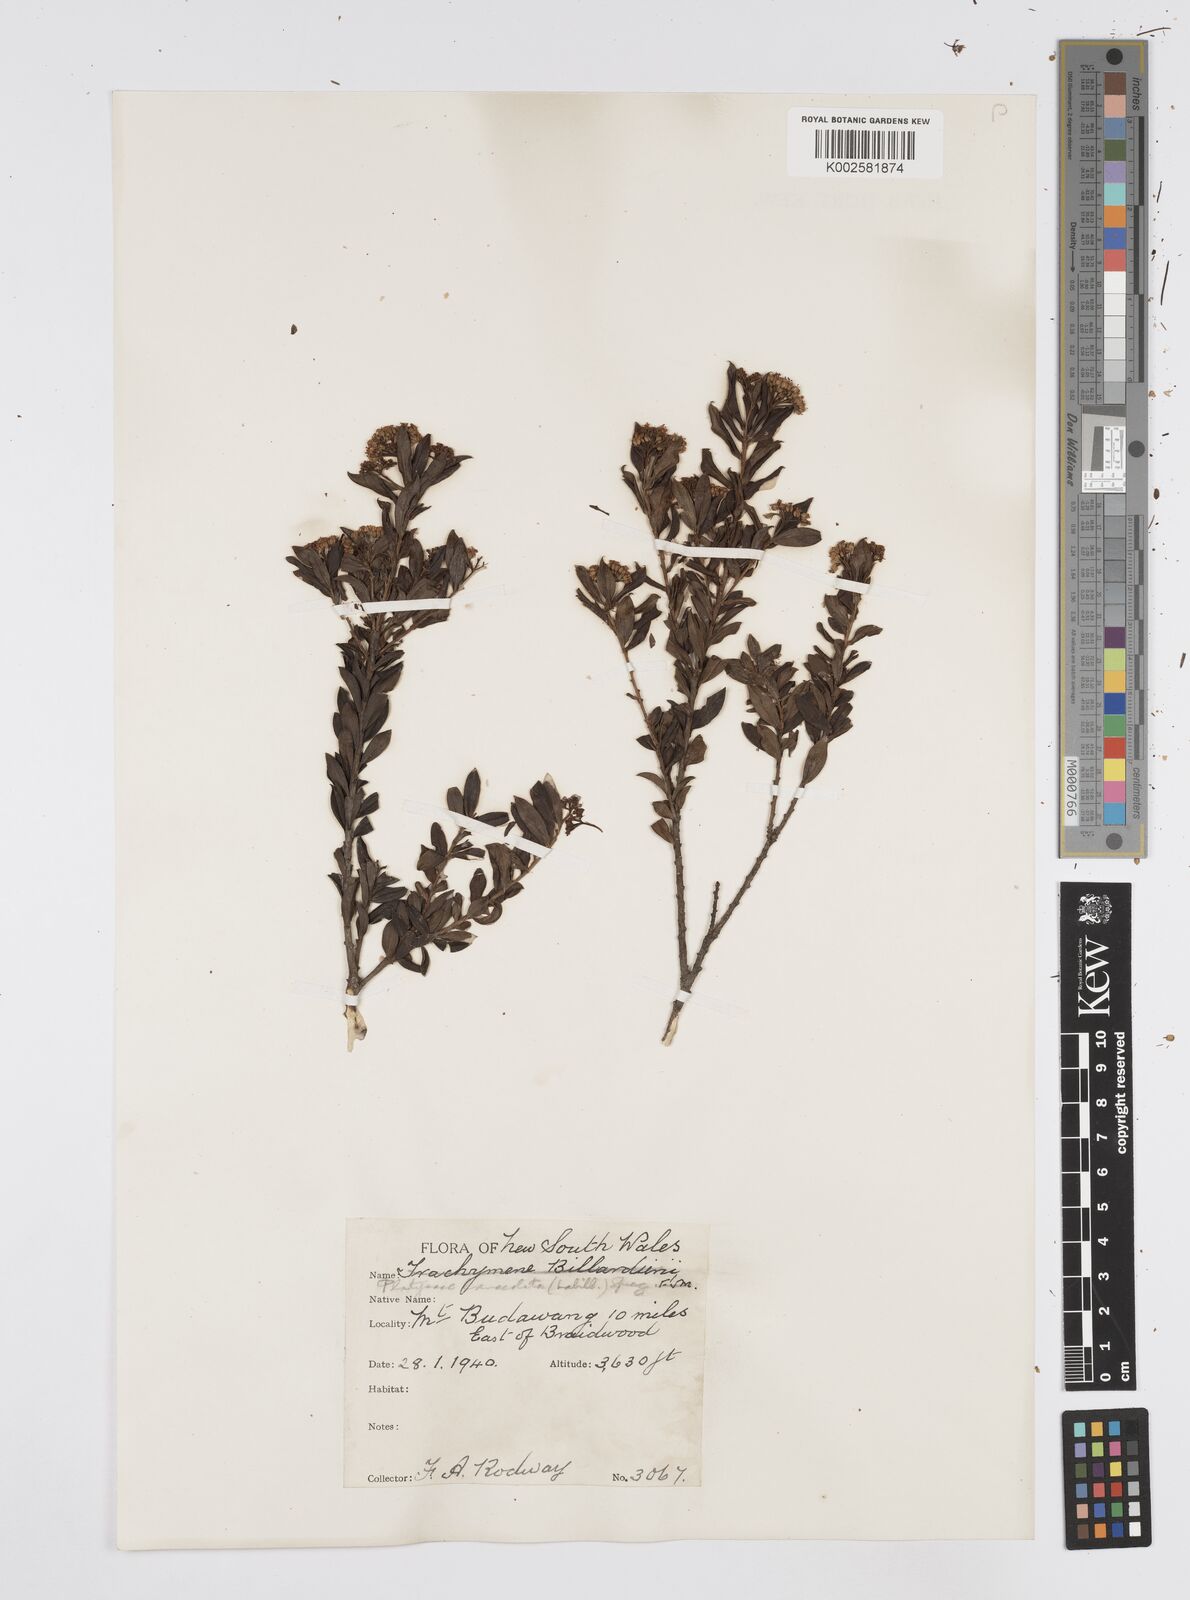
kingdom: Plantae
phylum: Tracheophyta
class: Magnoliopsida
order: Apiales
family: Apiaceae
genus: Platysace
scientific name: Platysace lanceolata
